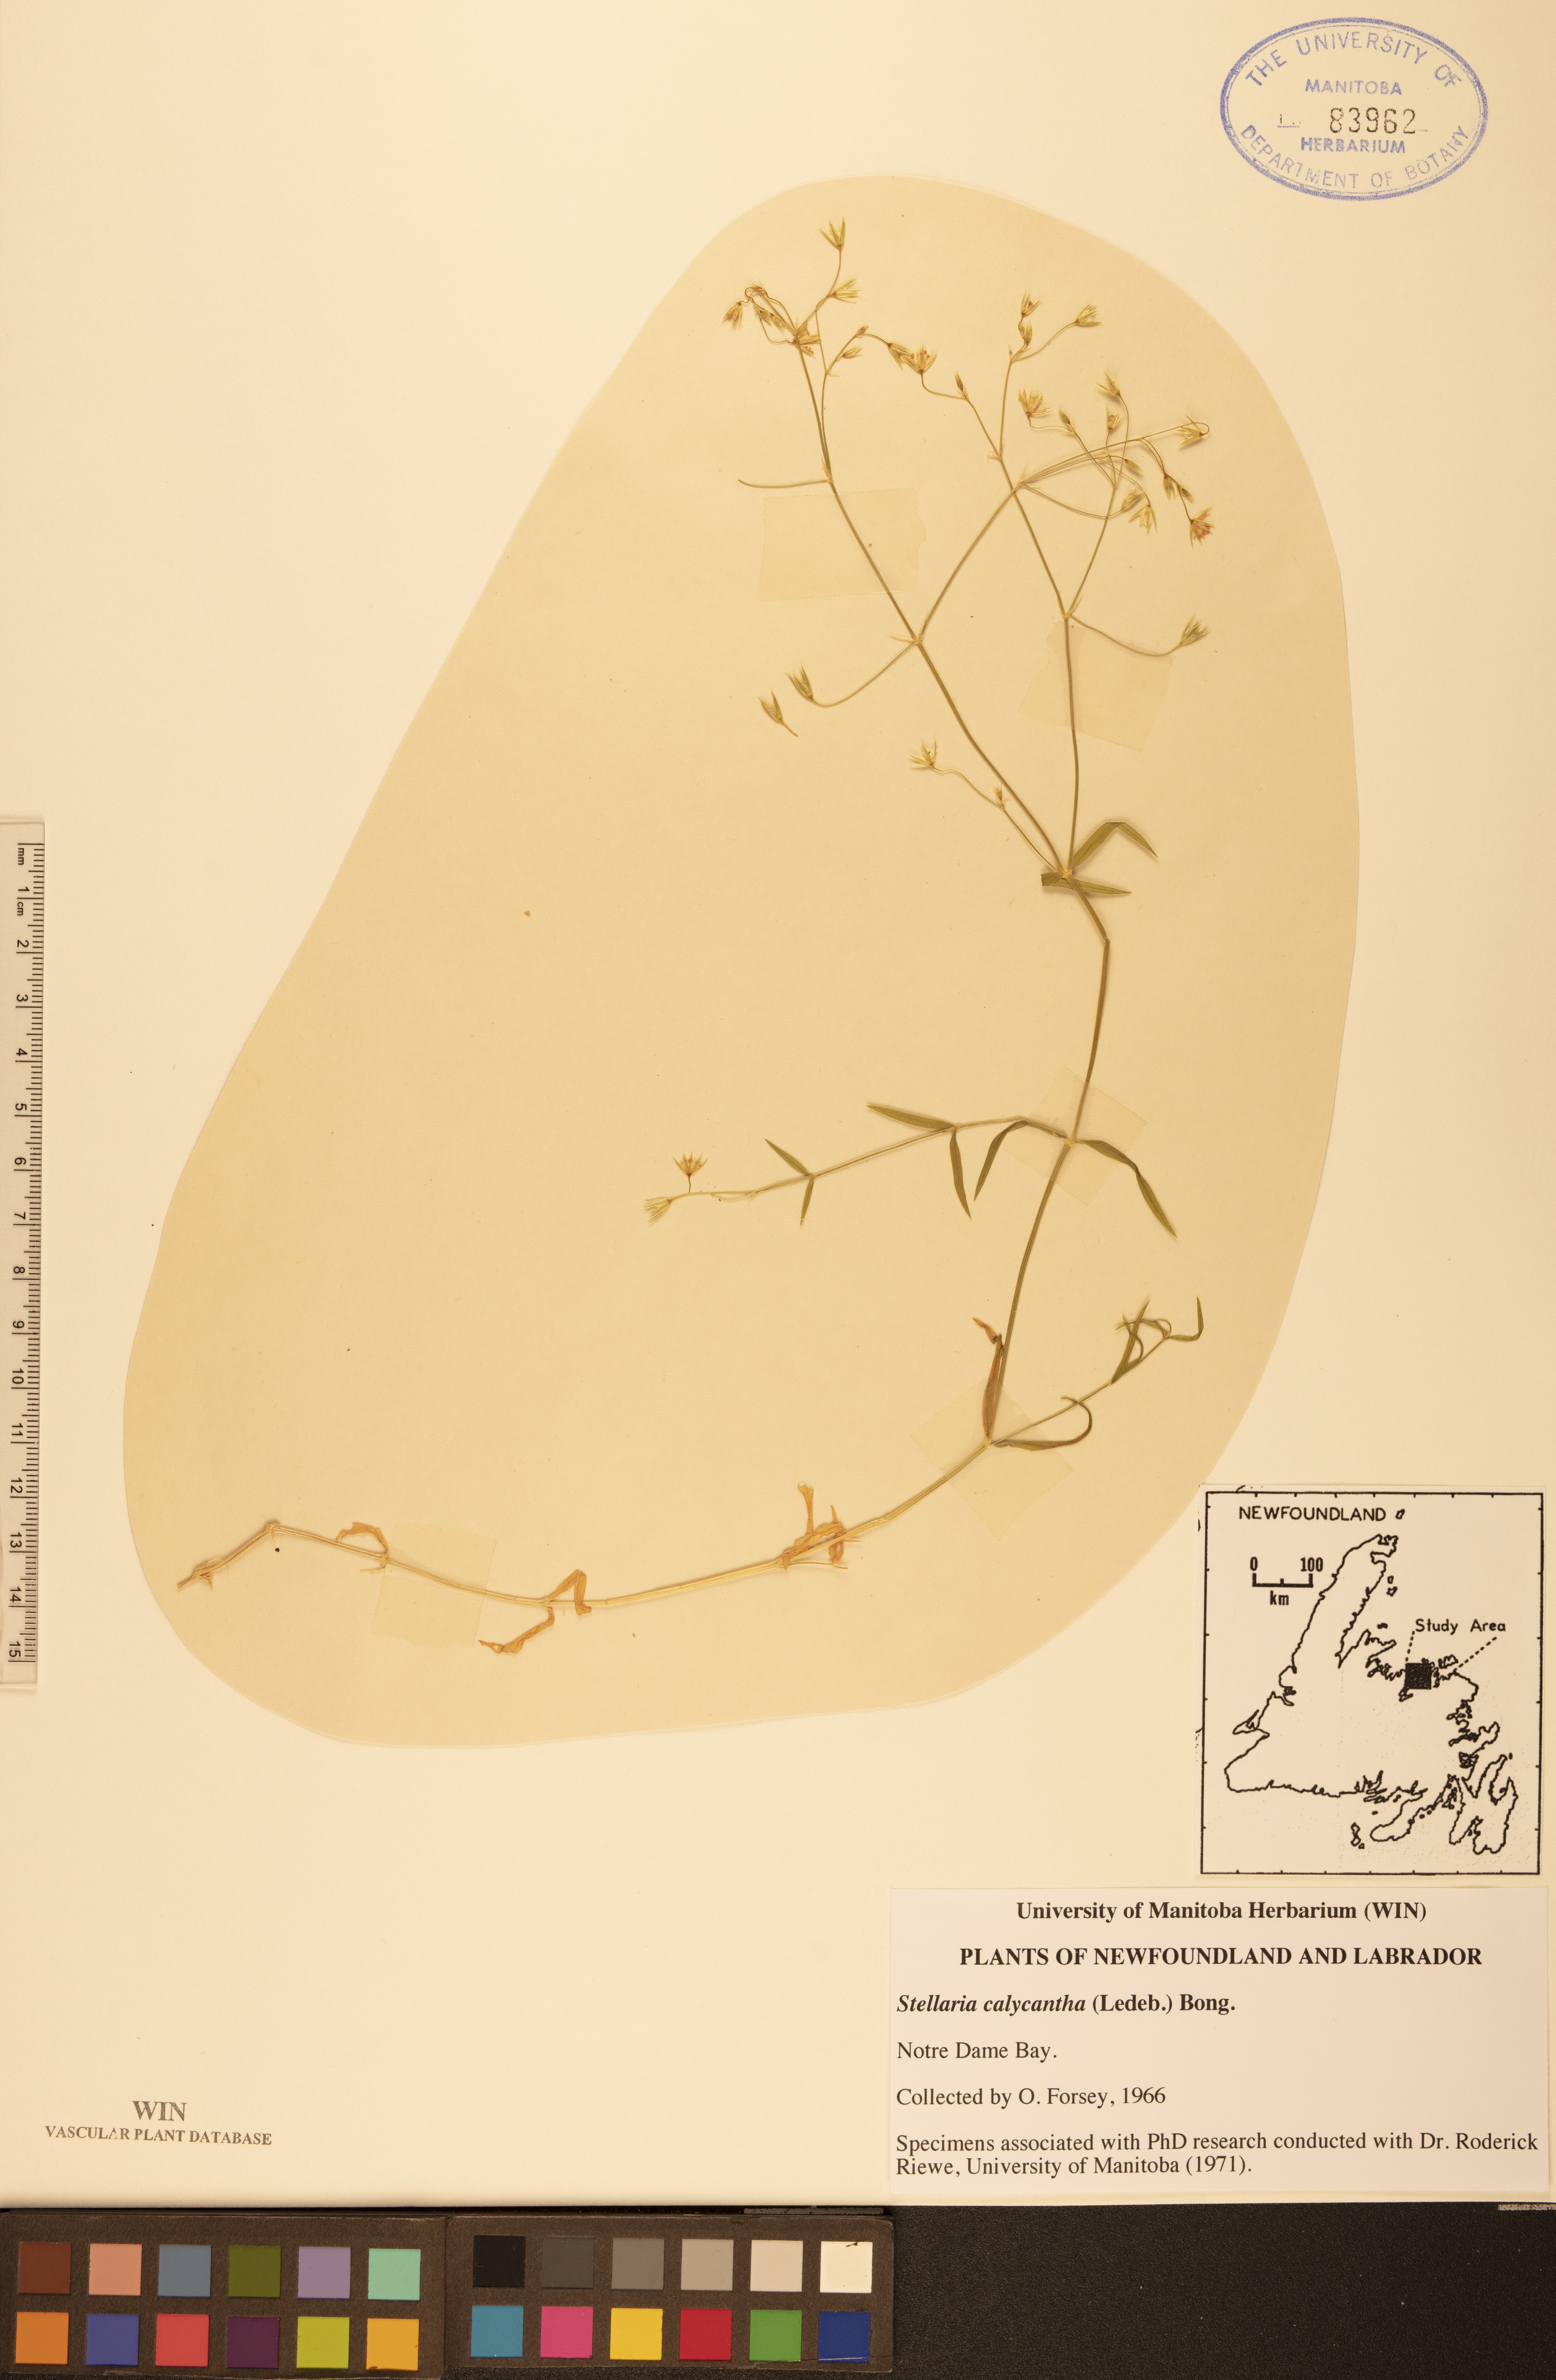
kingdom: Plantae
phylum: Tracheophyta
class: Magnoliopsida
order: Caryophyllales
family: Caryophyllaceae
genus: Stellaria
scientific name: Stellaria calycantha
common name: Northern starwort
